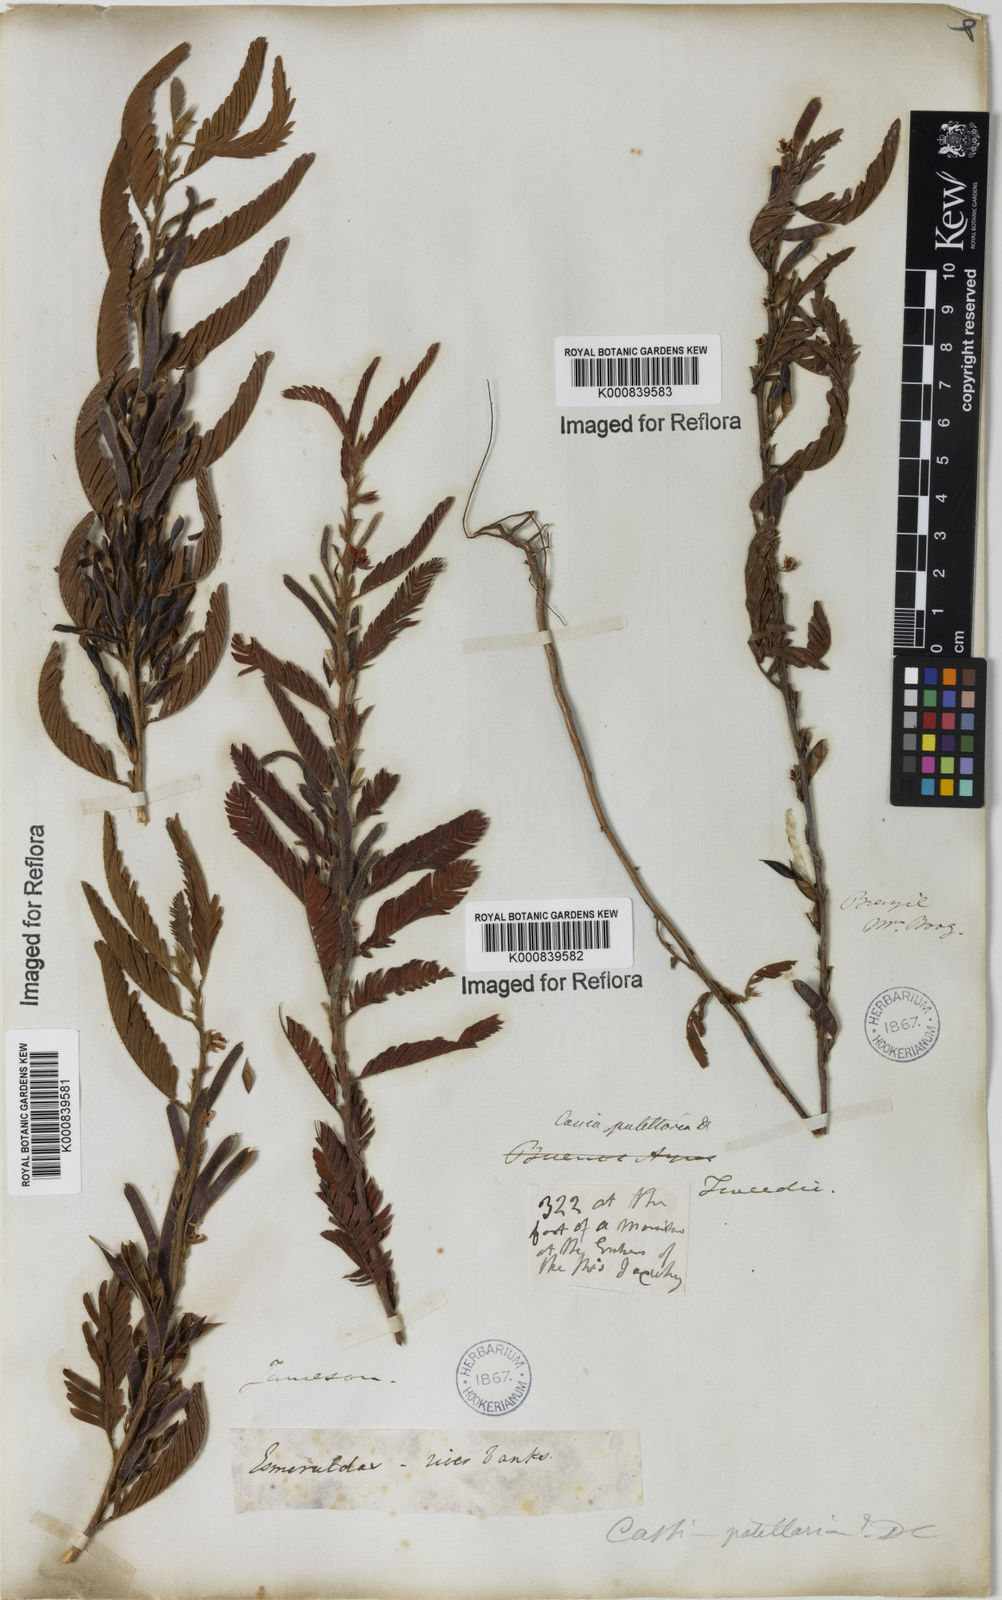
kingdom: Plantae
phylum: Tracheophyta
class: Magnoliopsida
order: Fabales
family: Fabaceae
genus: Chamaecrista
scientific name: Chamaecrista nictitans
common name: Sensitive cassia
